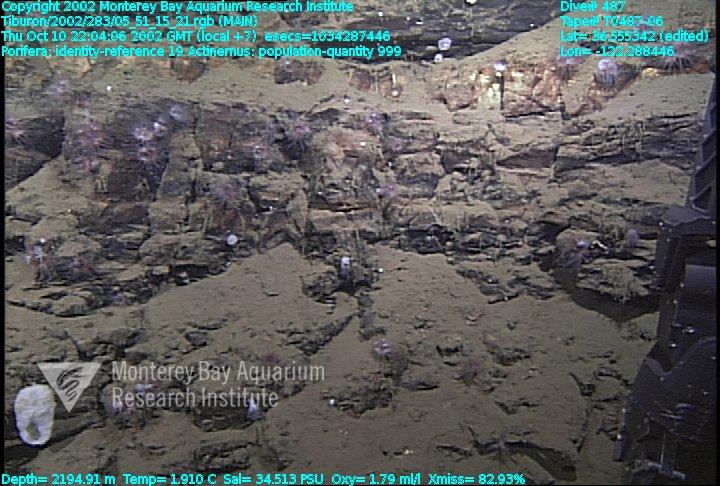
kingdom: Animalia
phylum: Porifera
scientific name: Porifera
